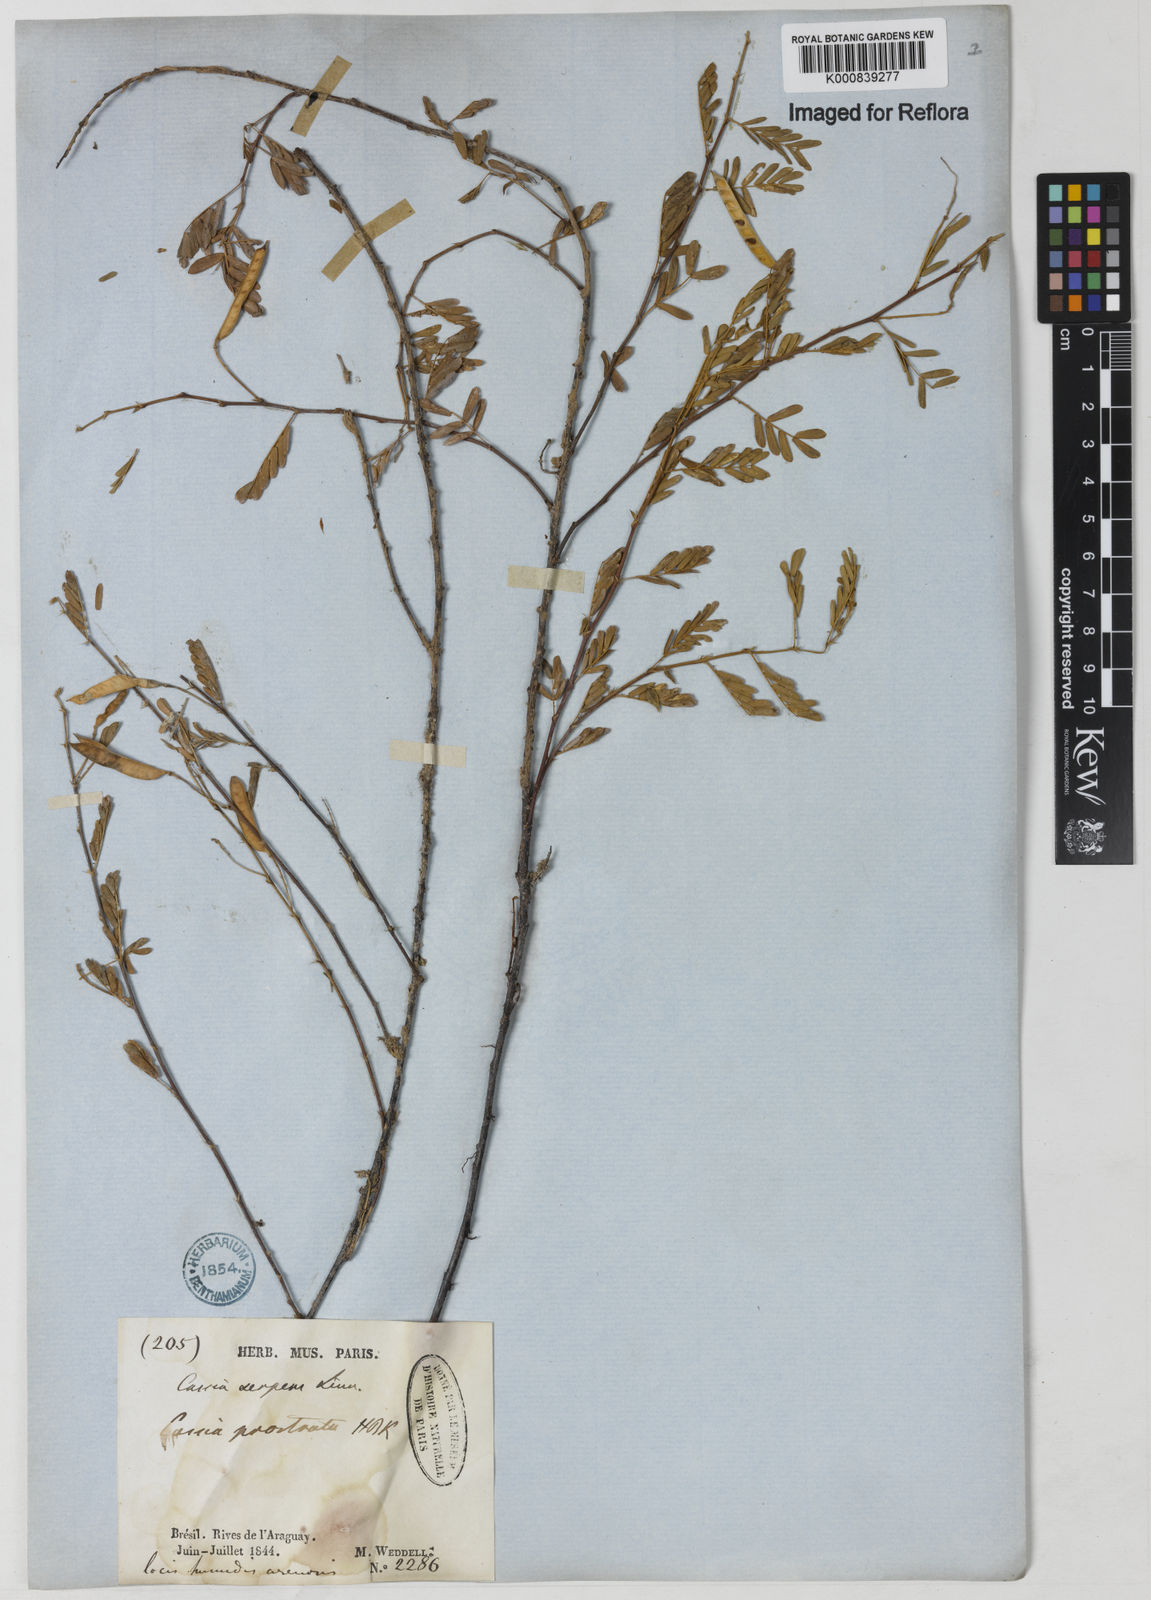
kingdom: Plantae
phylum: Tracheophyta
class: Magnoliopsida
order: Fabales
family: Fabaceae
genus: Chamaecrista
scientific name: Chamaecrista serpens
